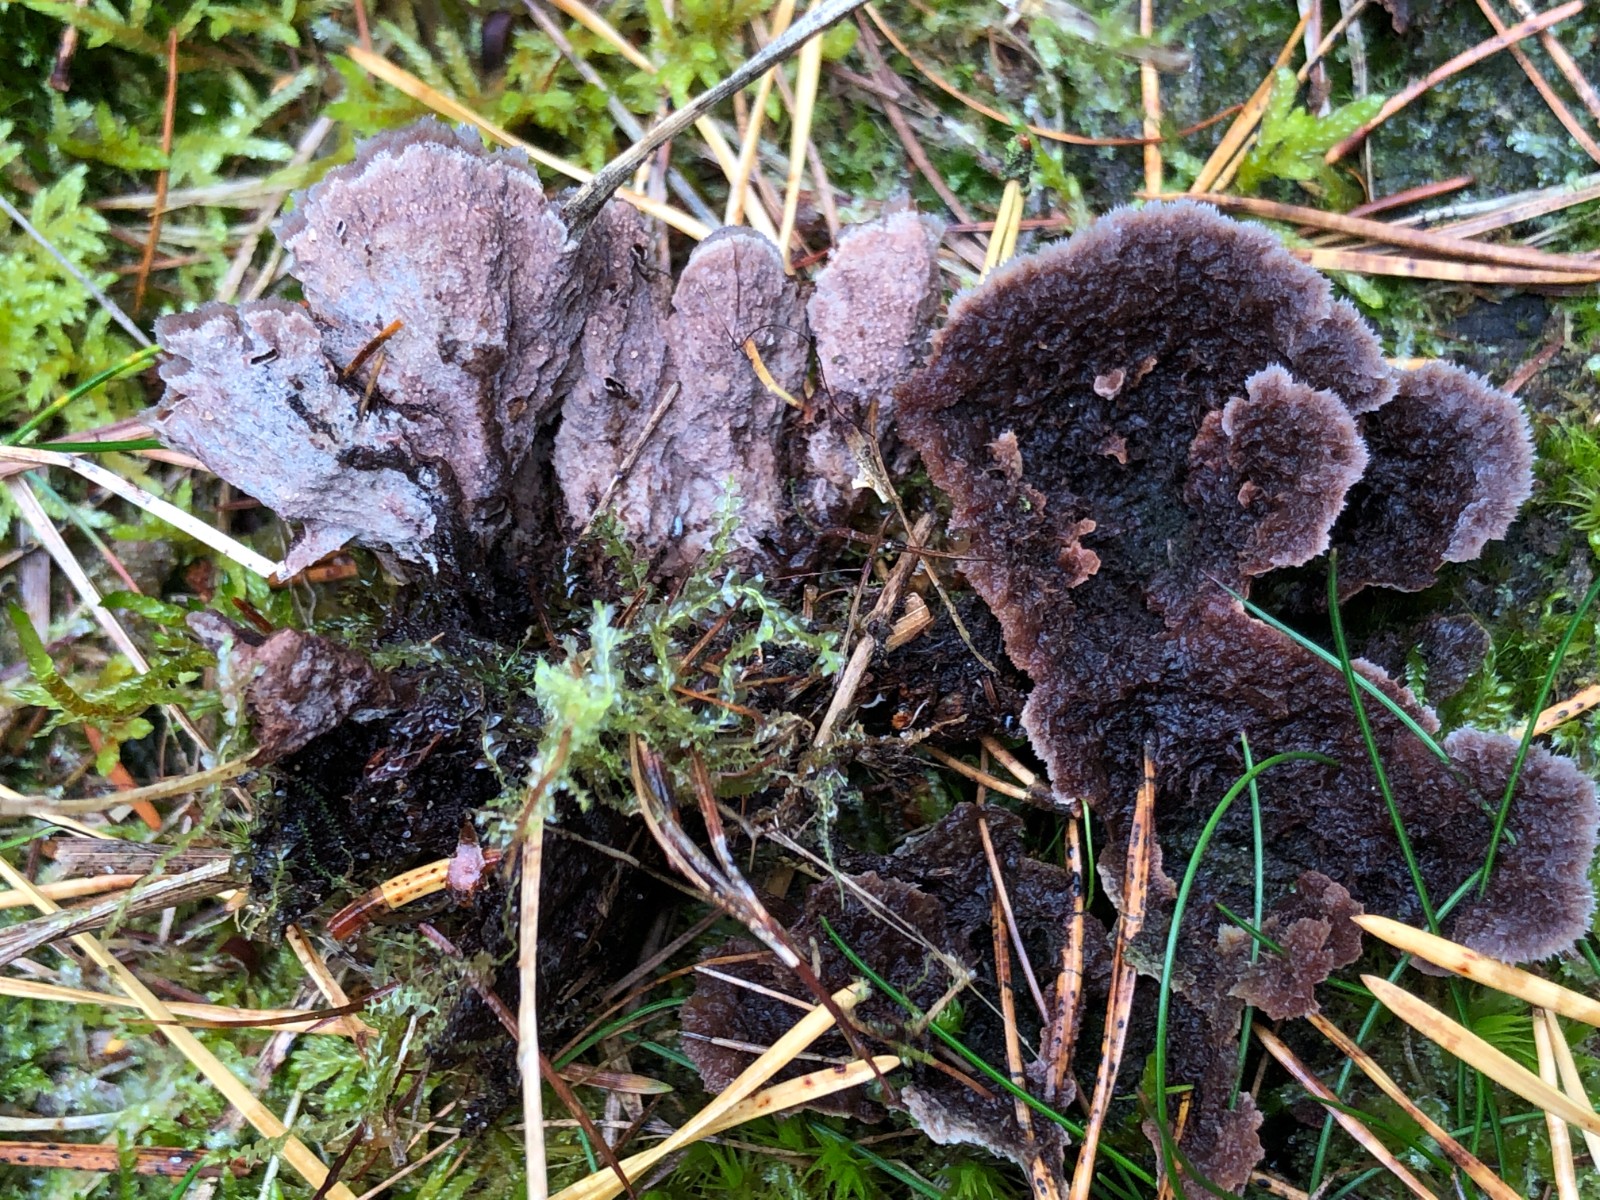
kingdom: Fungi
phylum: Basidiomycota
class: Agaricomycetes
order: Thelephorales
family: Thelephoraceae
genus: Thelephora
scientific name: Thelephora terrestris
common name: fliget frynsesvamp
